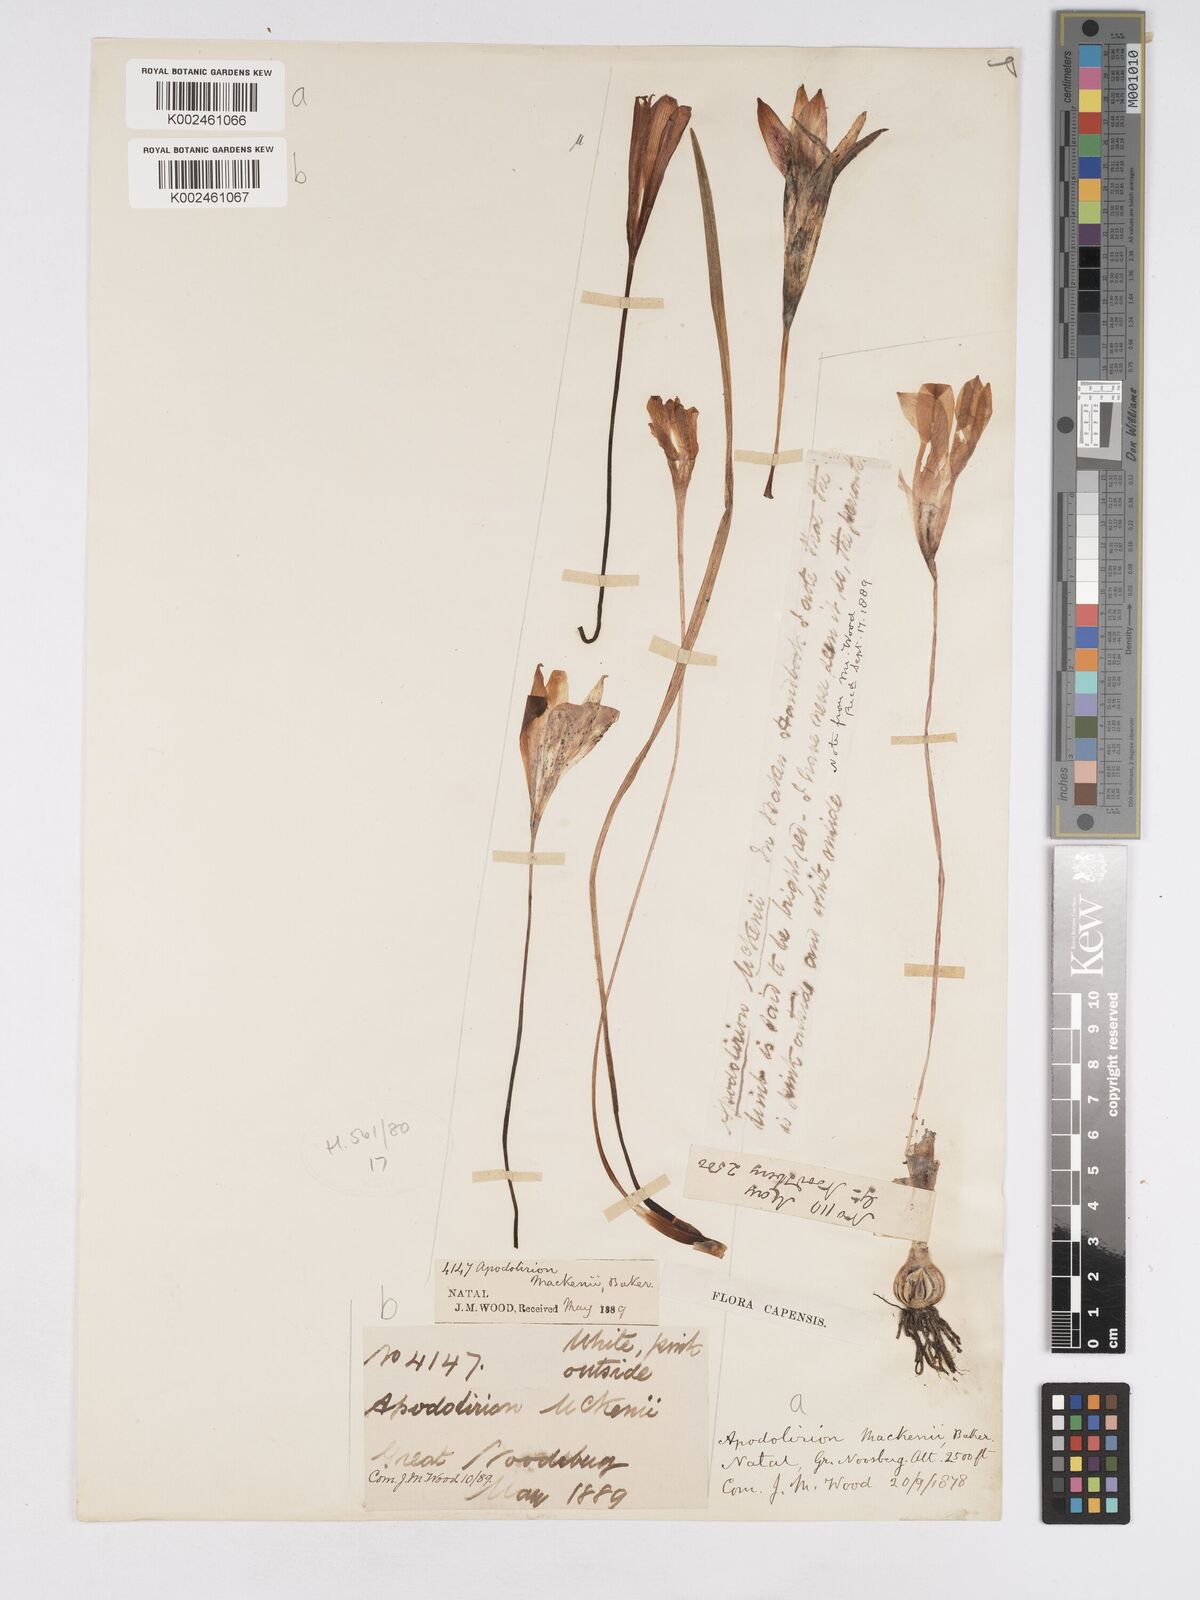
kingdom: Plantae
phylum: Tracheophyta
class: Liliopsida
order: Asparagales
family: Amaryllidaceae
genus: Apodolirion
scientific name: Apodolirion buchananii
